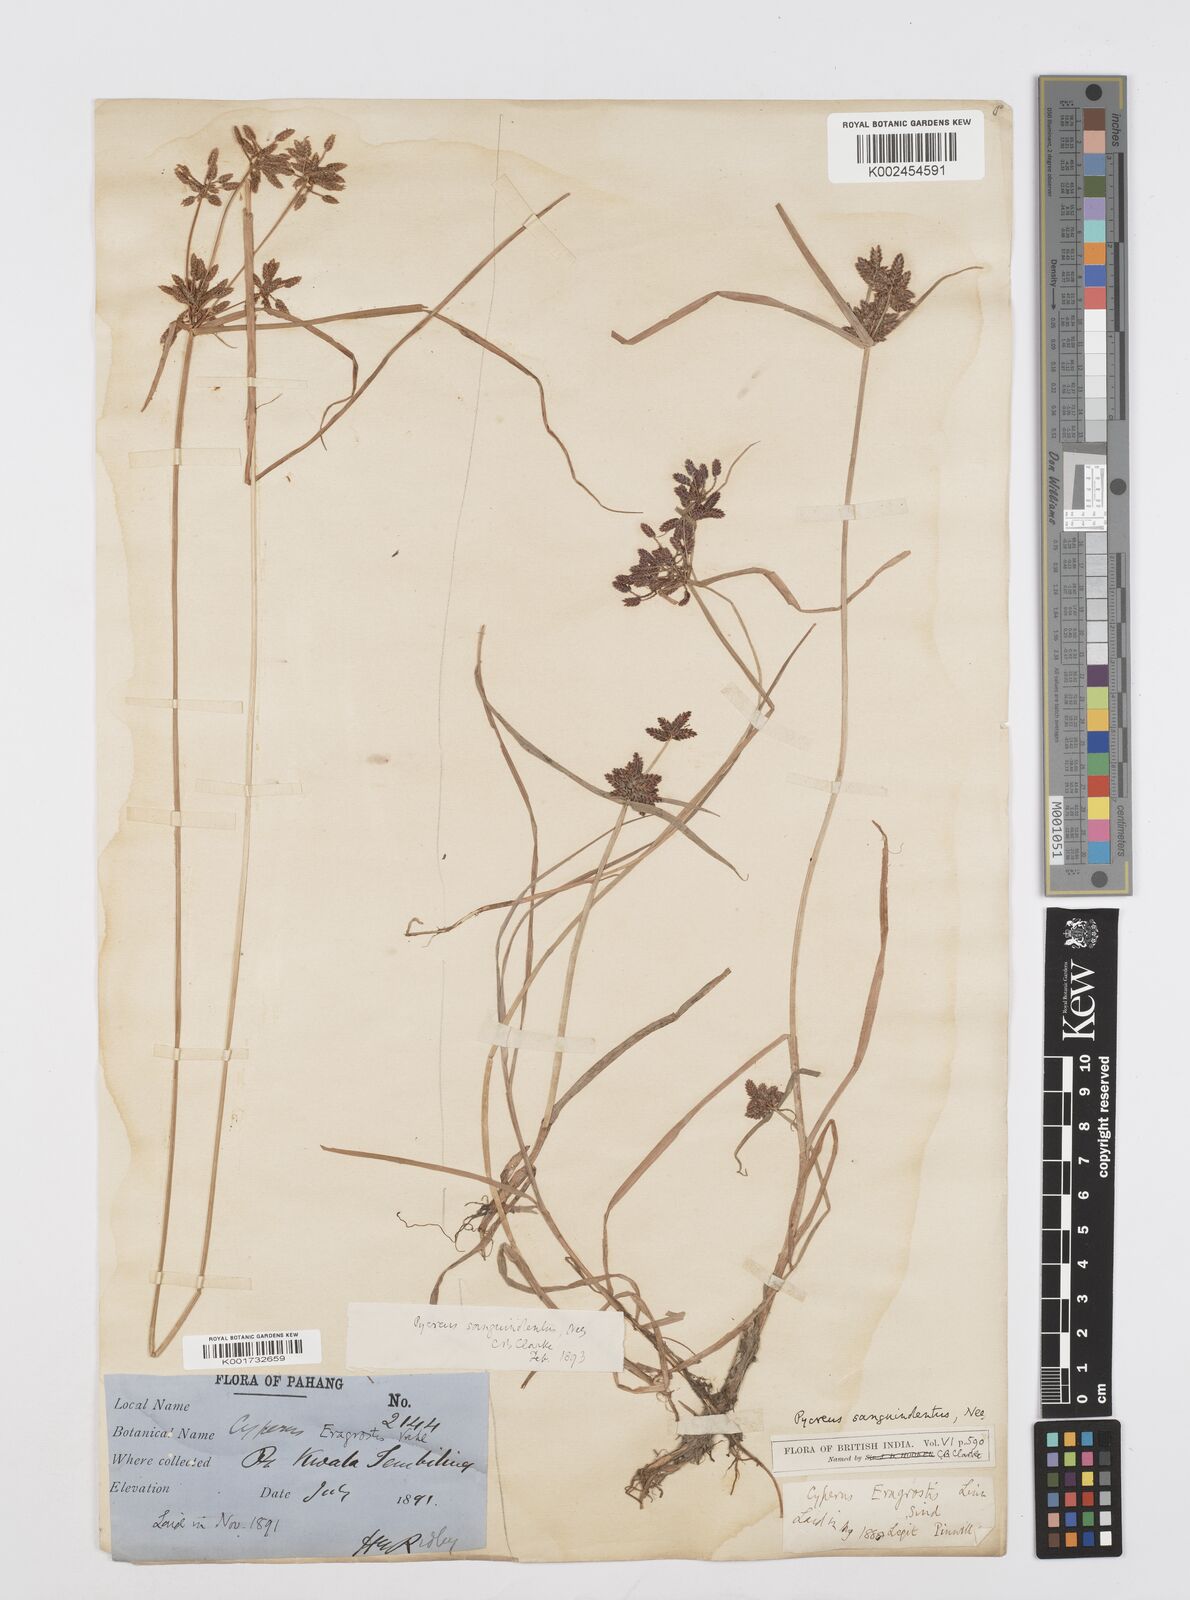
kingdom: Plantae
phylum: Tracheophyta
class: Liliopsida
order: Poales
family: Cyperaceae
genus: Cyperus
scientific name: Cyperus sanguinolentus
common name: Purpleglume flatsedge
